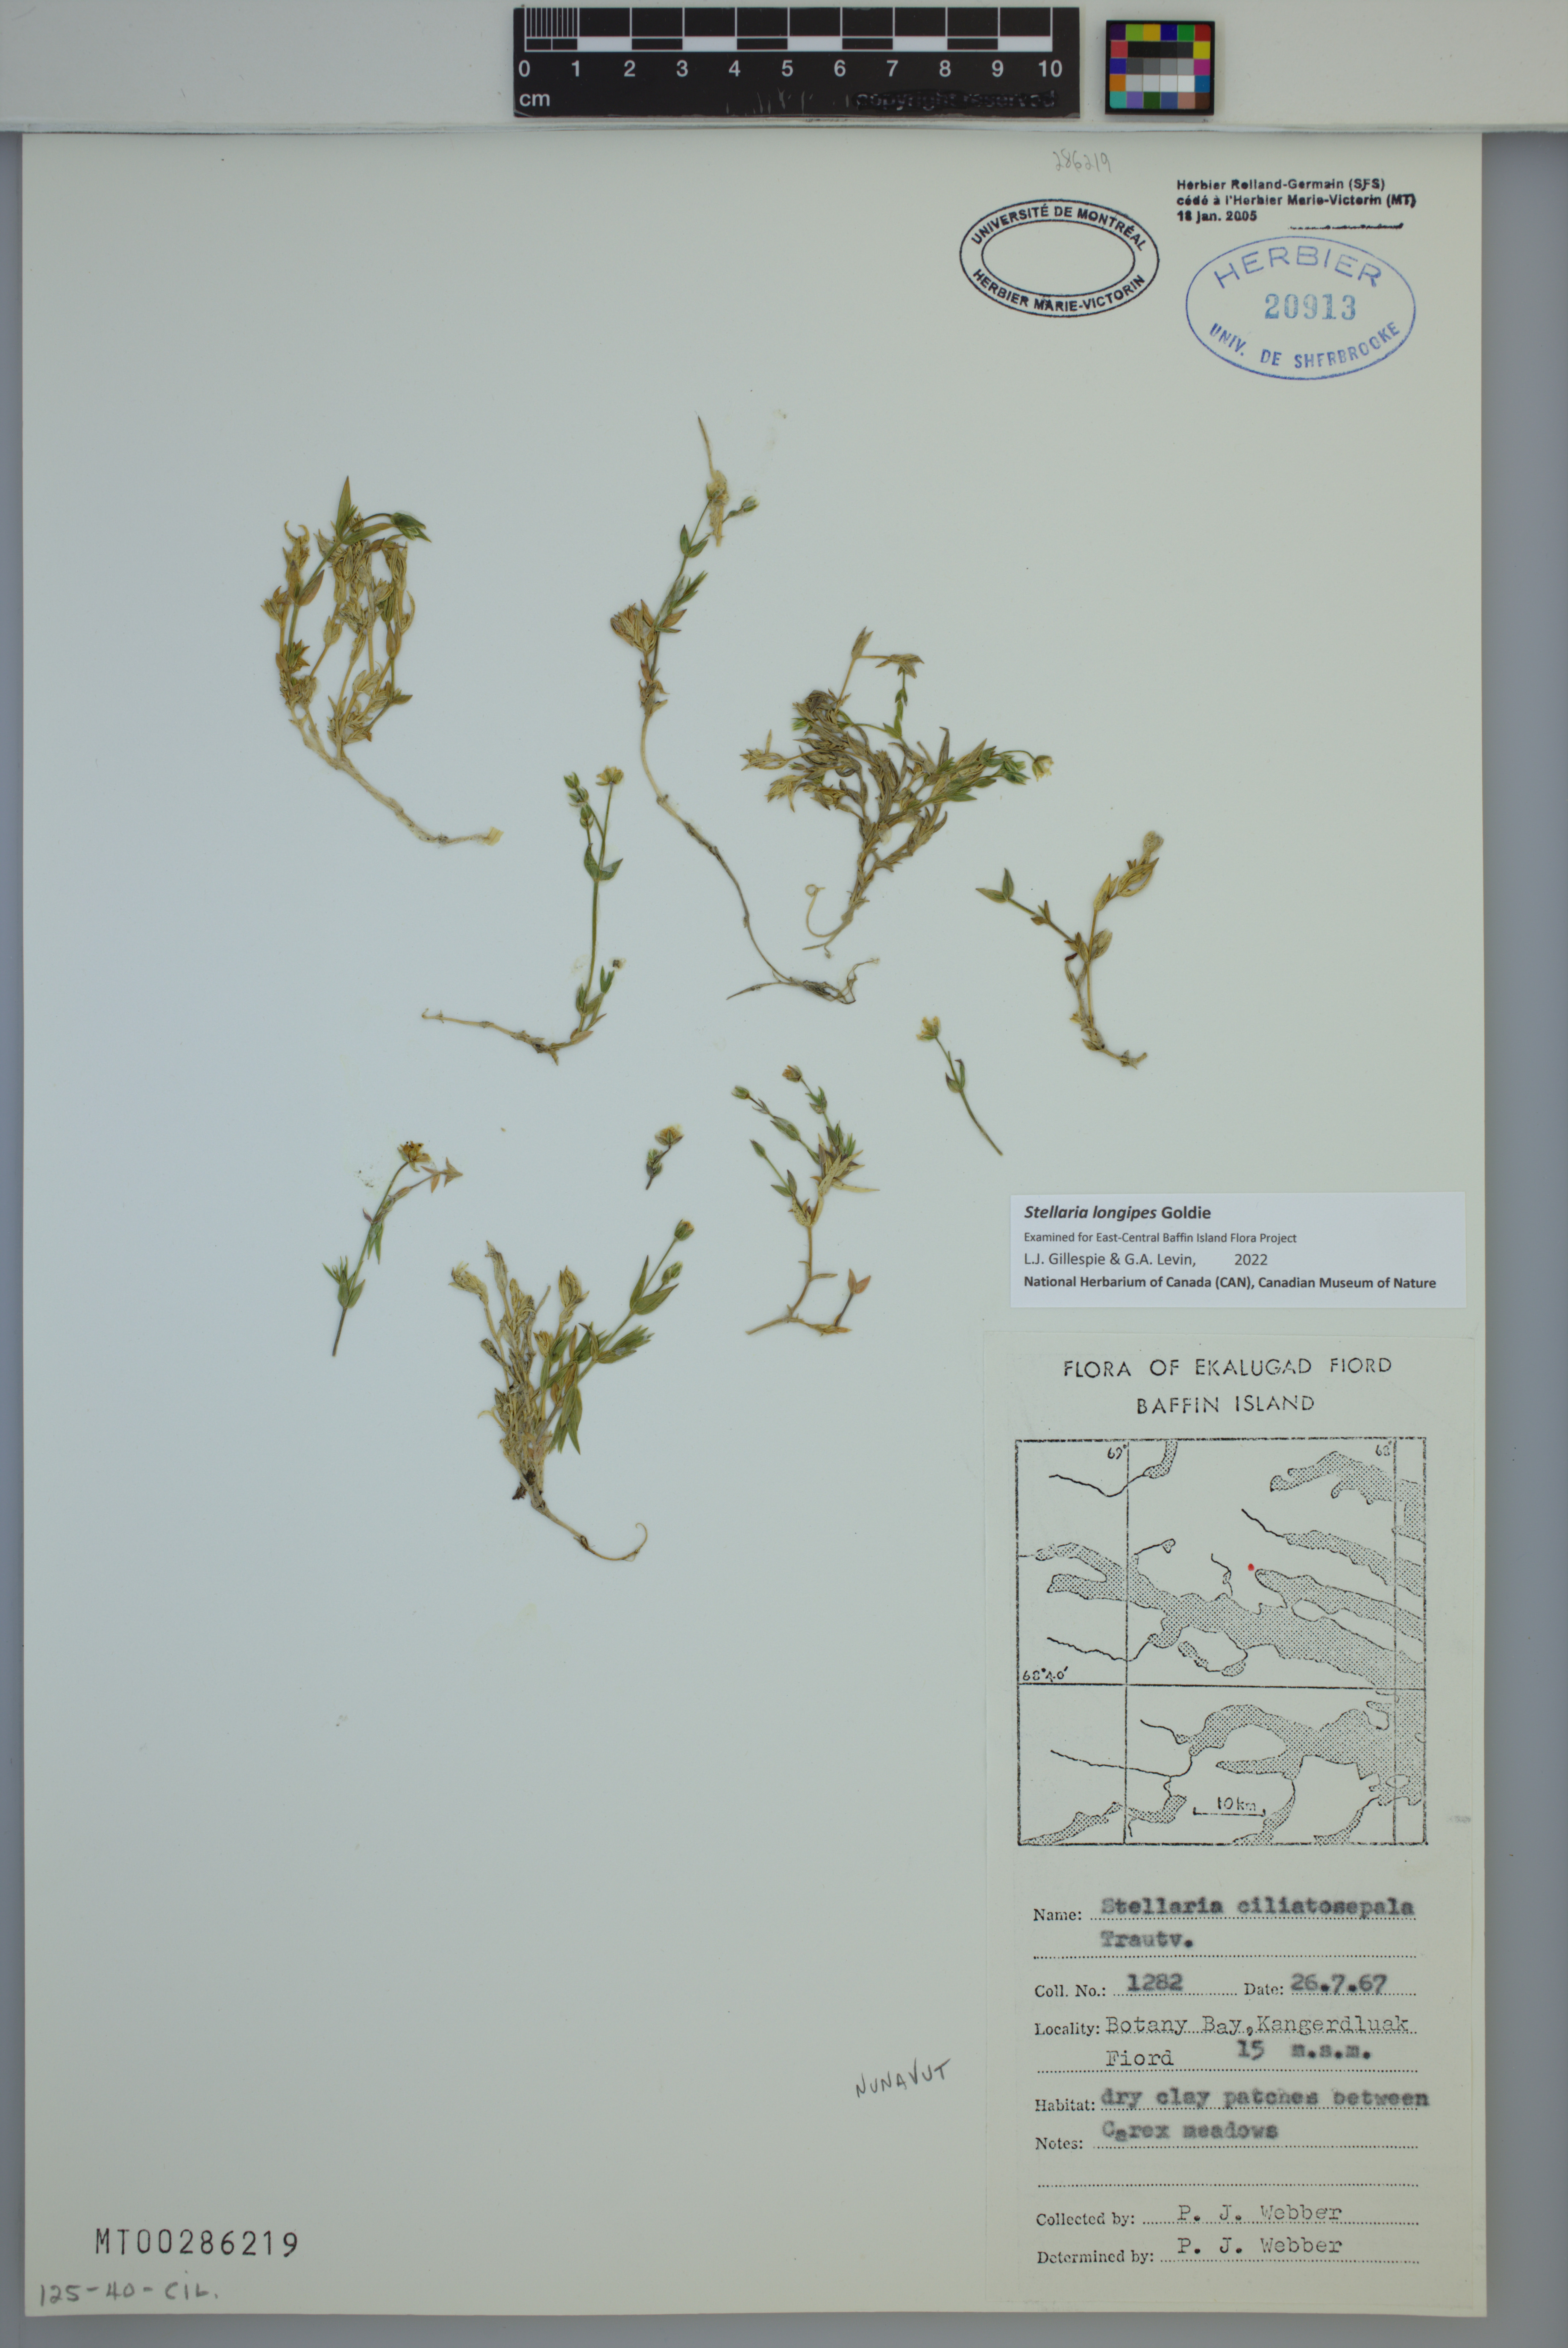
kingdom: Plantae
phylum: Tracheophyta
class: Magnoliopsida
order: Caryophyllales
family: Caryophyllaceae
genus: Stellaria
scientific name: Stellaria longipes
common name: Goldie's starwort
